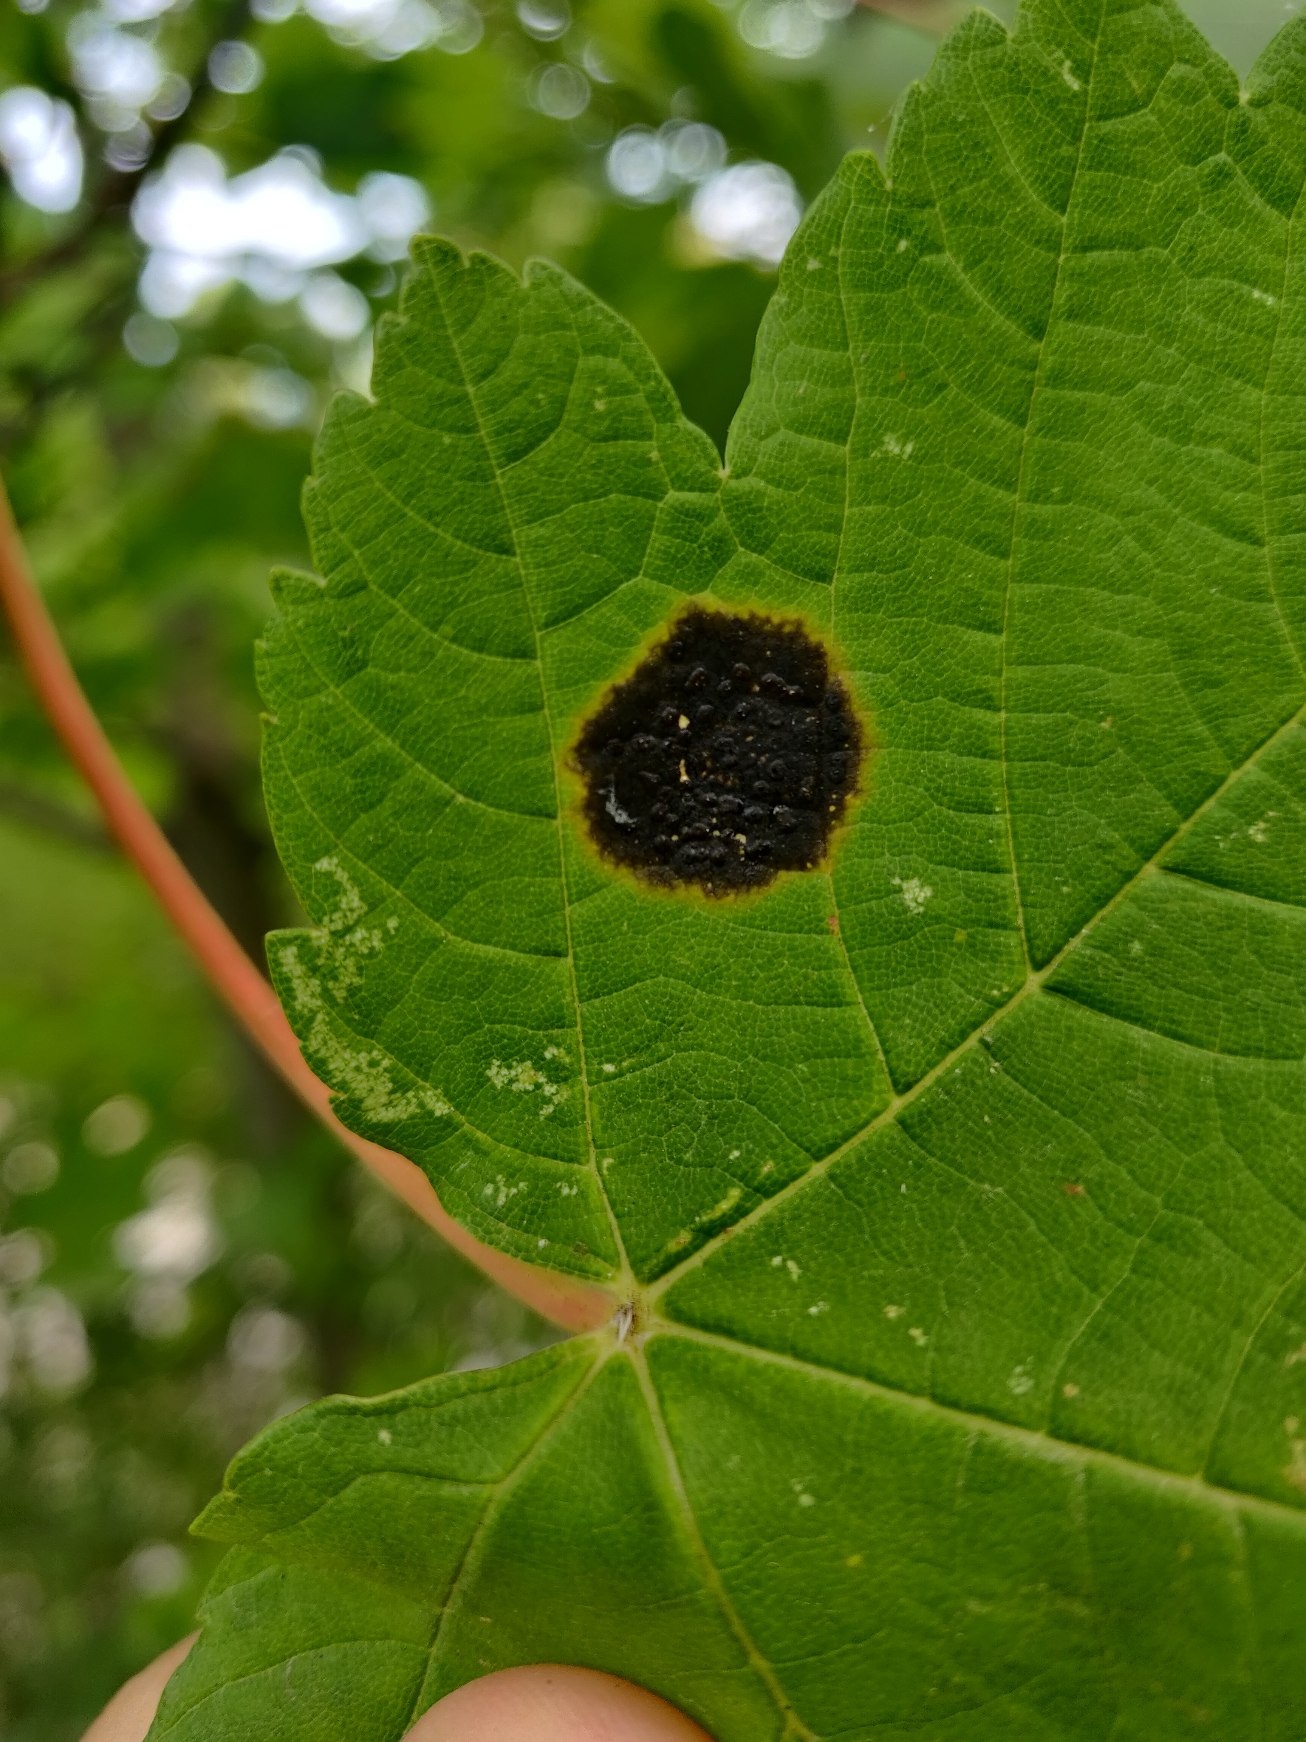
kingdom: Fungi
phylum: Ascomycota
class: Leotiomycetes
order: Rhytismatales
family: Rhytismataceae
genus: Rhytisma
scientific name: Rhytisma acerinum
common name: Ahorn-rynkeplet
